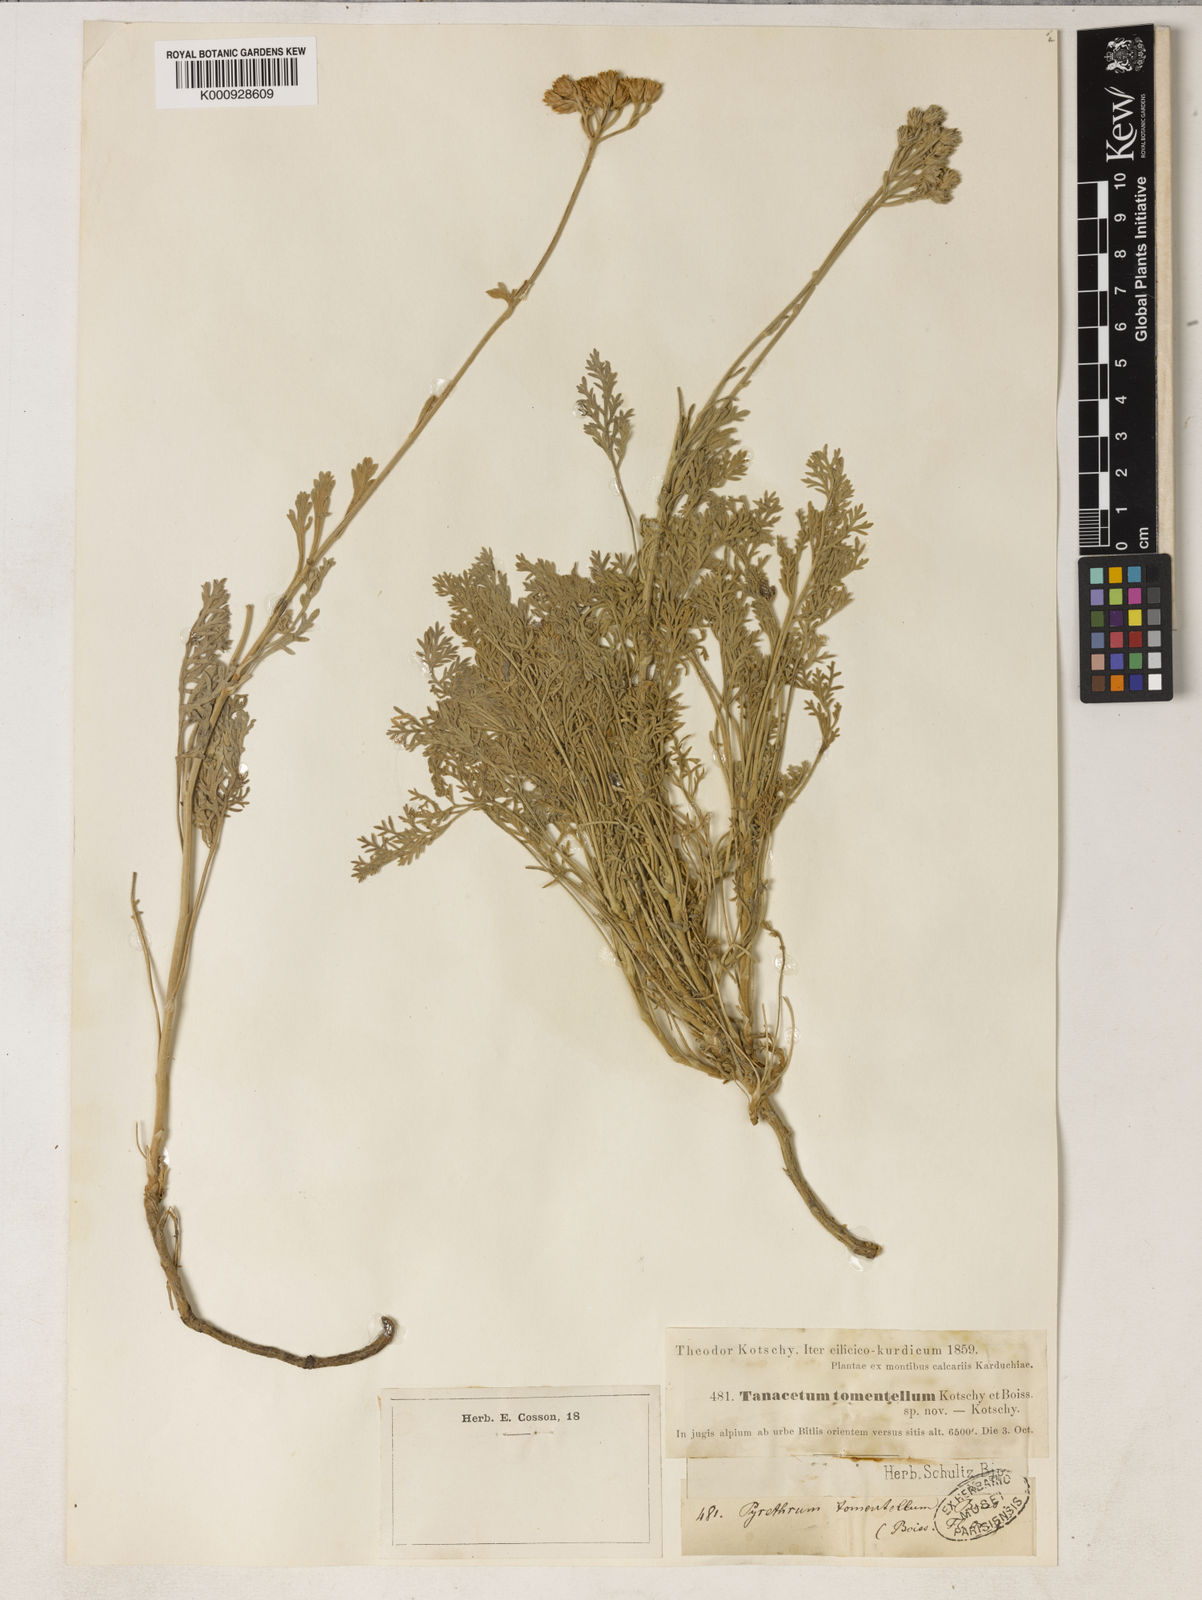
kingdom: Plantae
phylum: Tracheophyta
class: Magnoliopsida
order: Asterales
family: Asteraceae
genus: Tanacetum
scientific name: Tanacetum tomentellum
